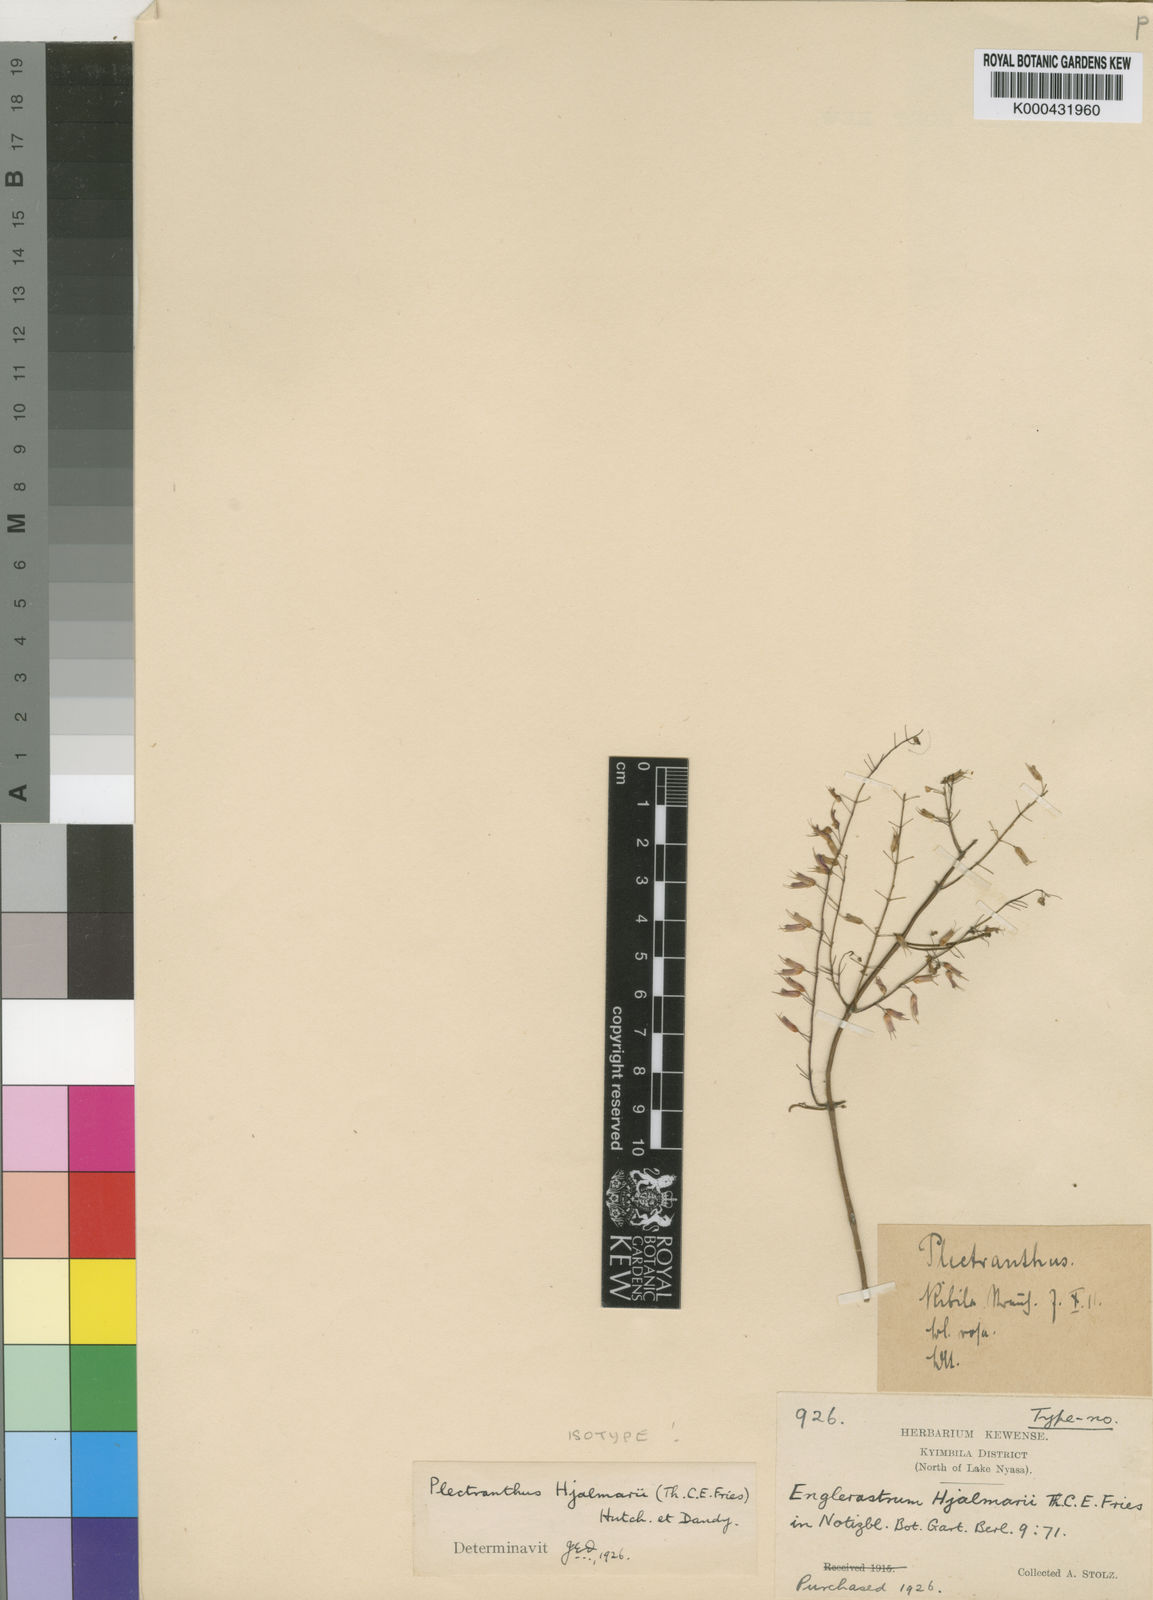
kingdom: Plantae
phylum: Tracheophyta
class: Magnoliopsida
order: Lamiales
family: Lamiaceae
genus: Coleus
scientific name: Coleus efoliatus
